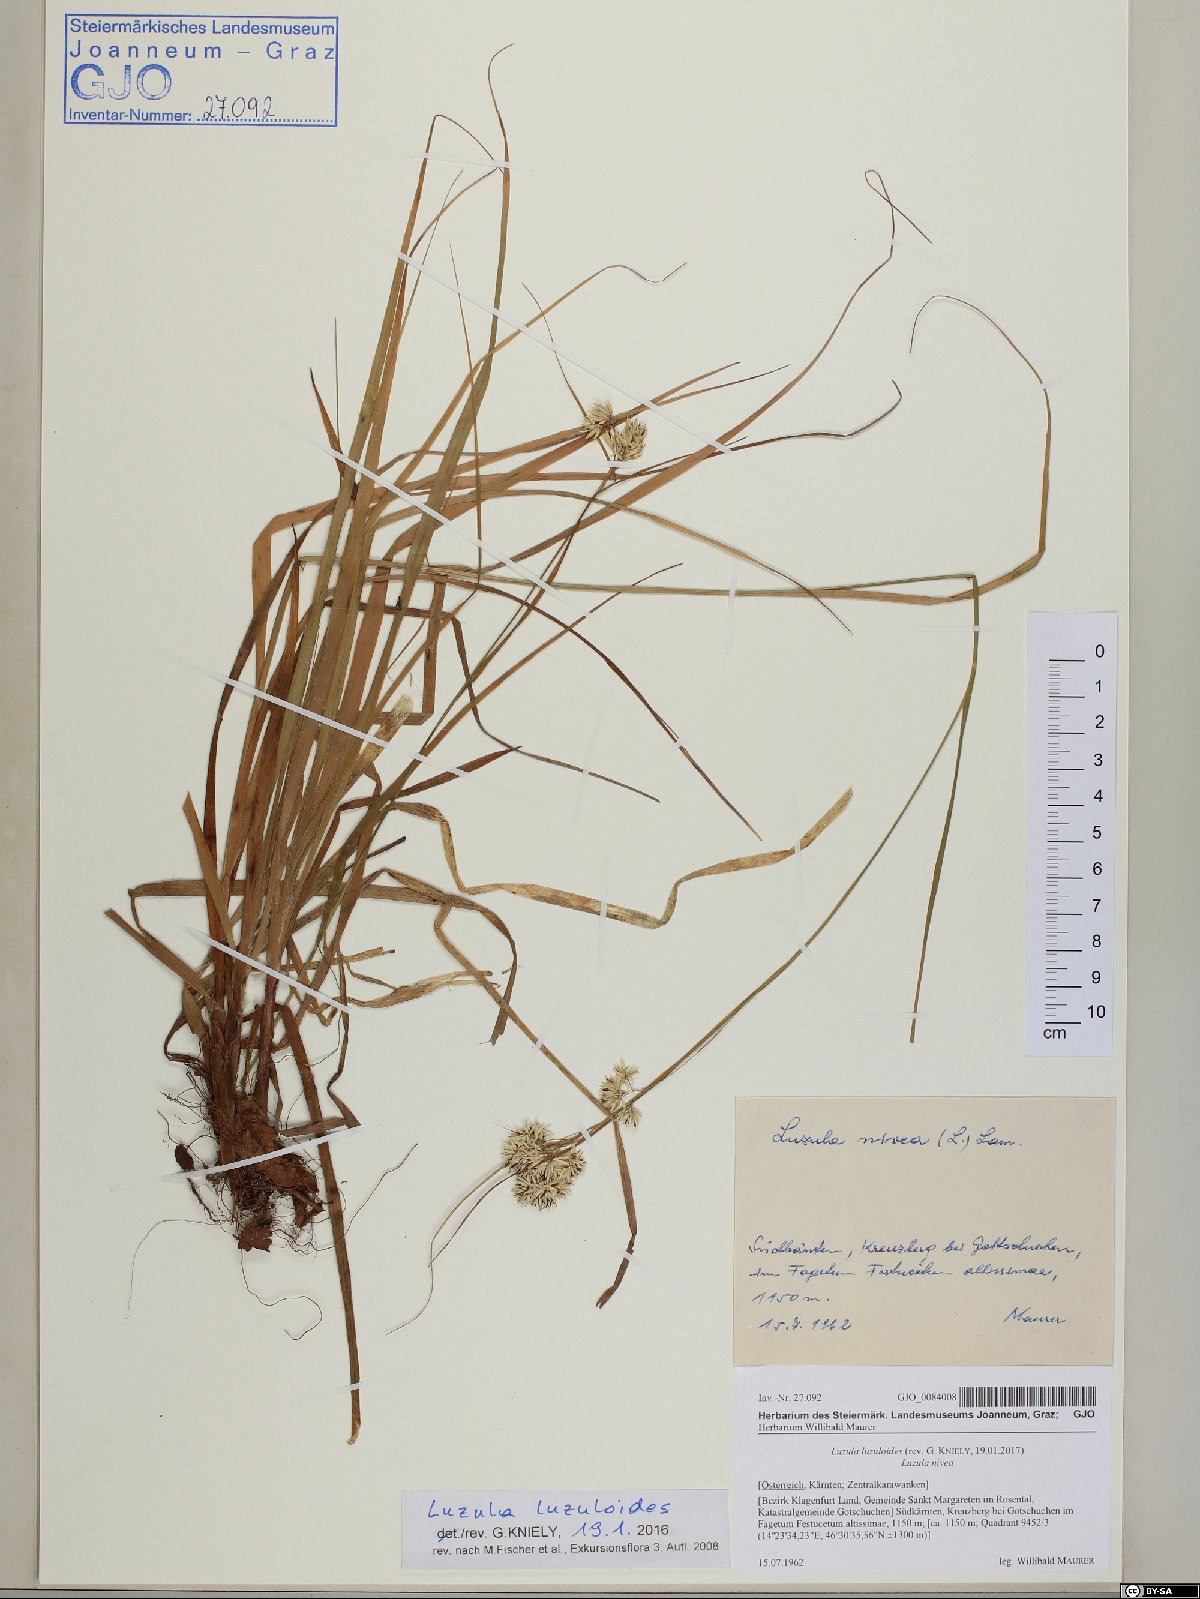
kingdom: Plantae
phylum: Tracheophyta
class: Liliopsida
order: Poales
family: Juncaceae
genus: Luzula
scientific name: Luzula luzuloides
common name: White wood-rush
